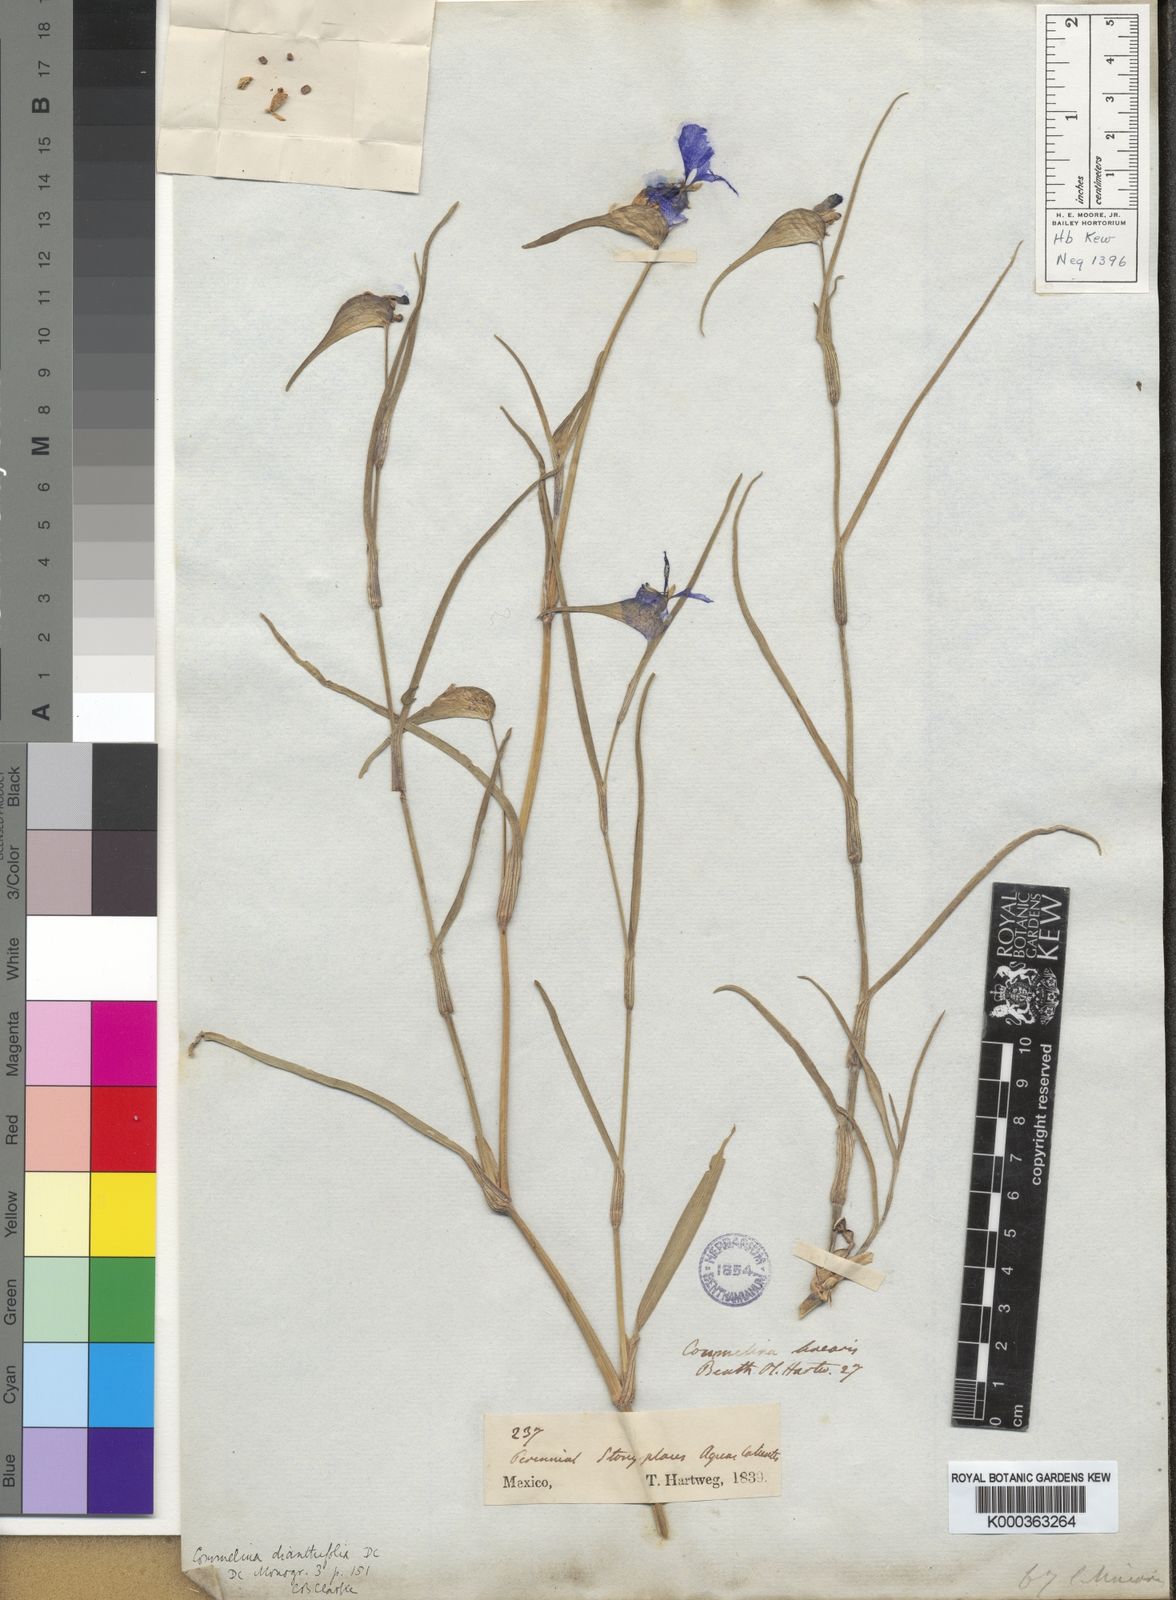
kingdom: Plantae
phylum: Tracheophyta
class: Liliopsida
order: Commelinales
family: Commelinaceae
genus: Commelina
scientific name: Commelina
